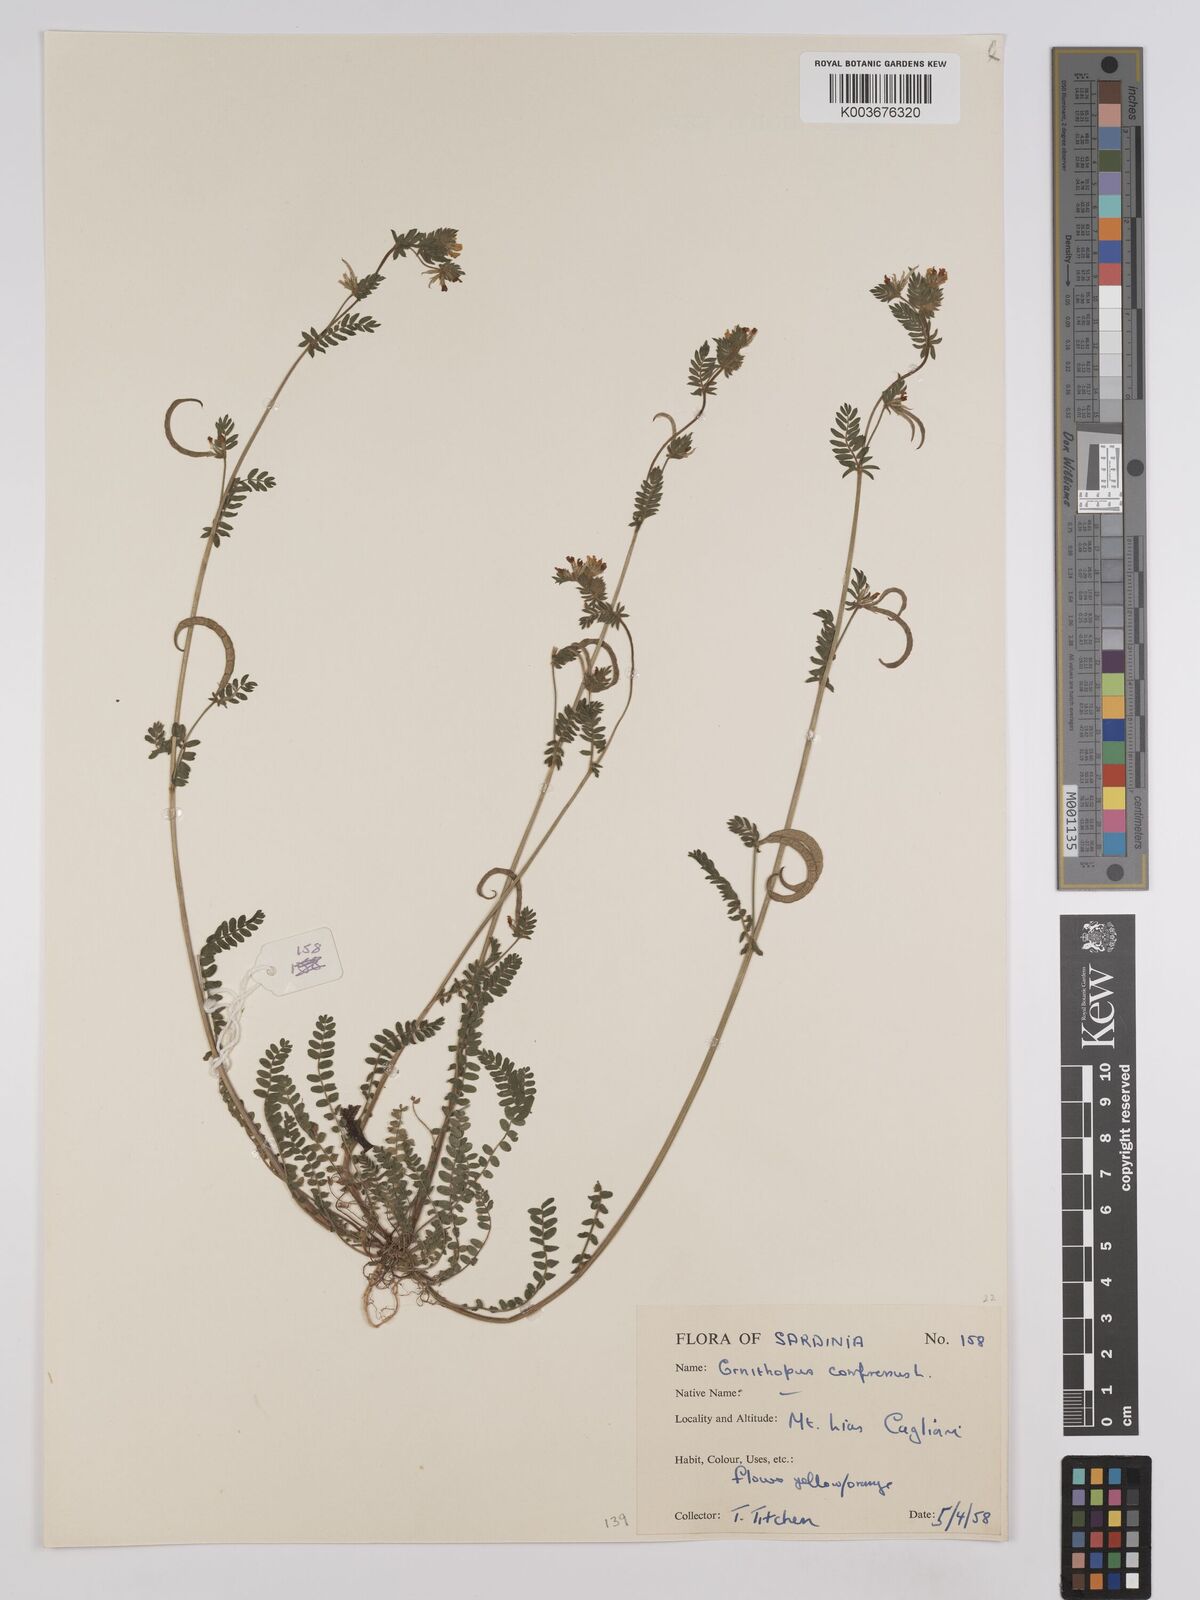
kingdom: Plantae
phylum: Tracheophyta
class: Magnoliopsida
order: Fabales
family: Fabaceae
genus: Ornithopus
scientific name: Ornithopus compressus
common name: Yellow serradella
